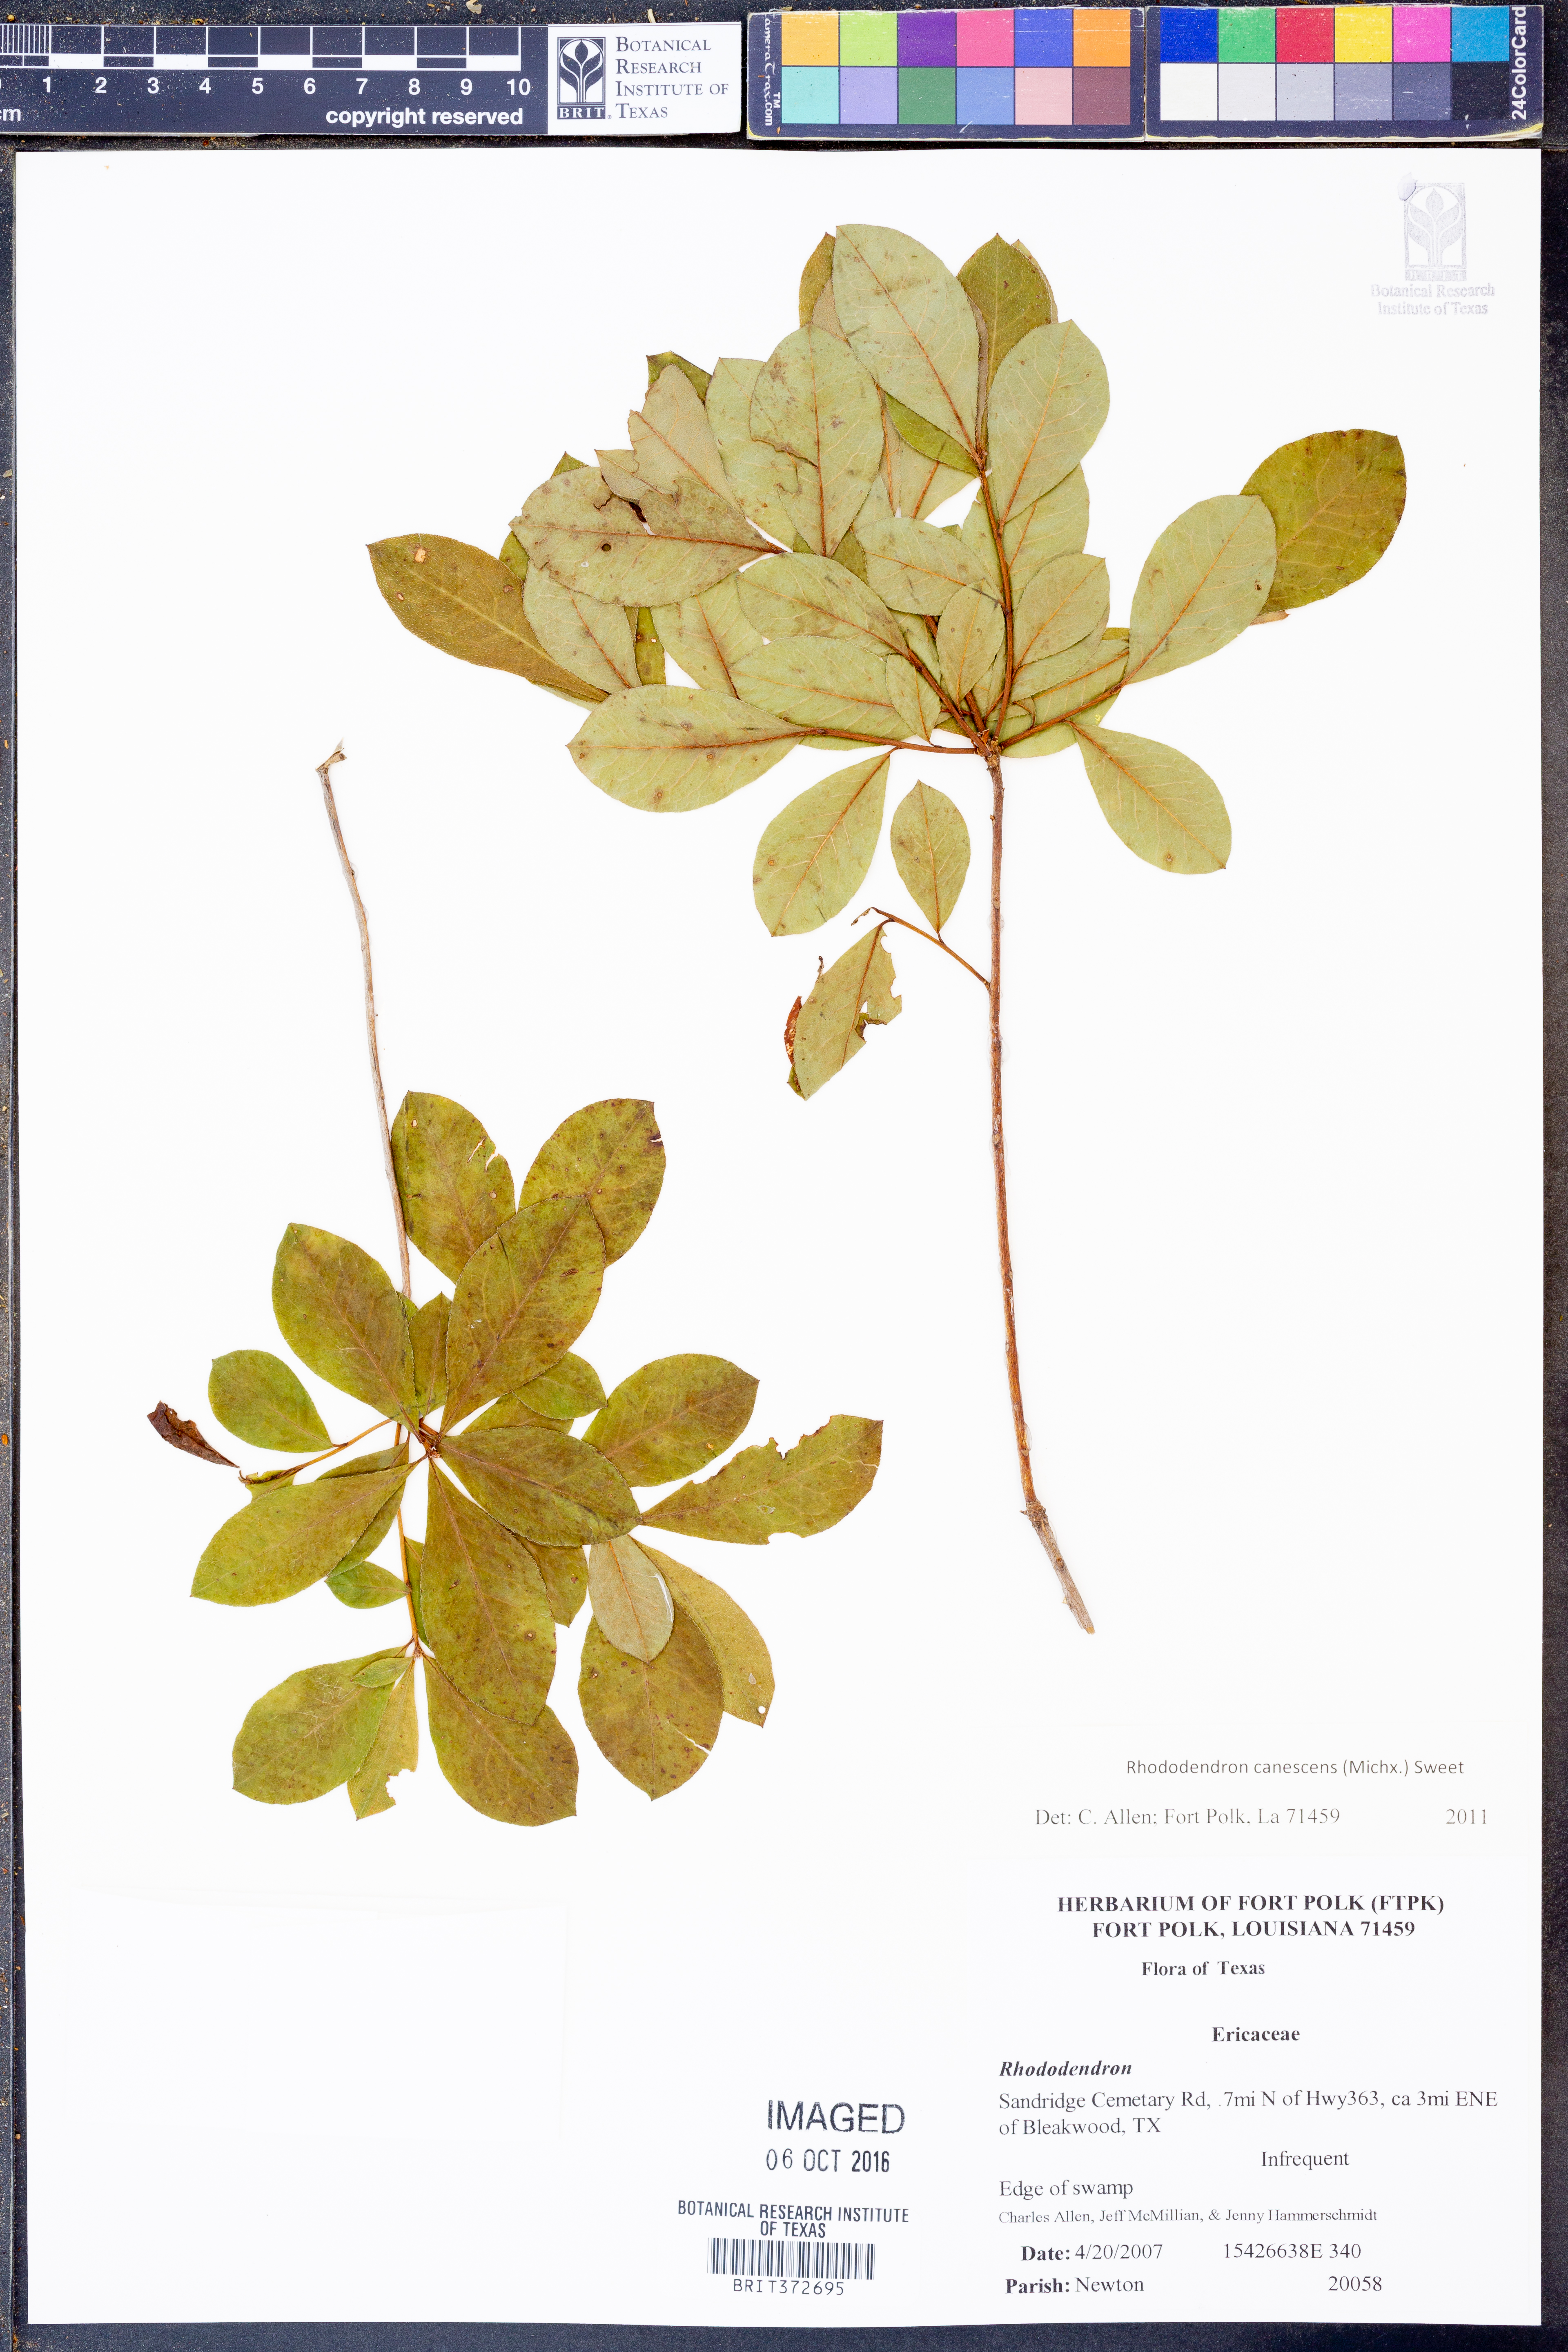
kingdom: Plantae
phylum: Tracheophyta
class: Magnoliopsida
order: Ericales
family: Ericaceae
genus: Rhododendron
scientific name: Rhododendron canescens
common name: Mountain azalea
